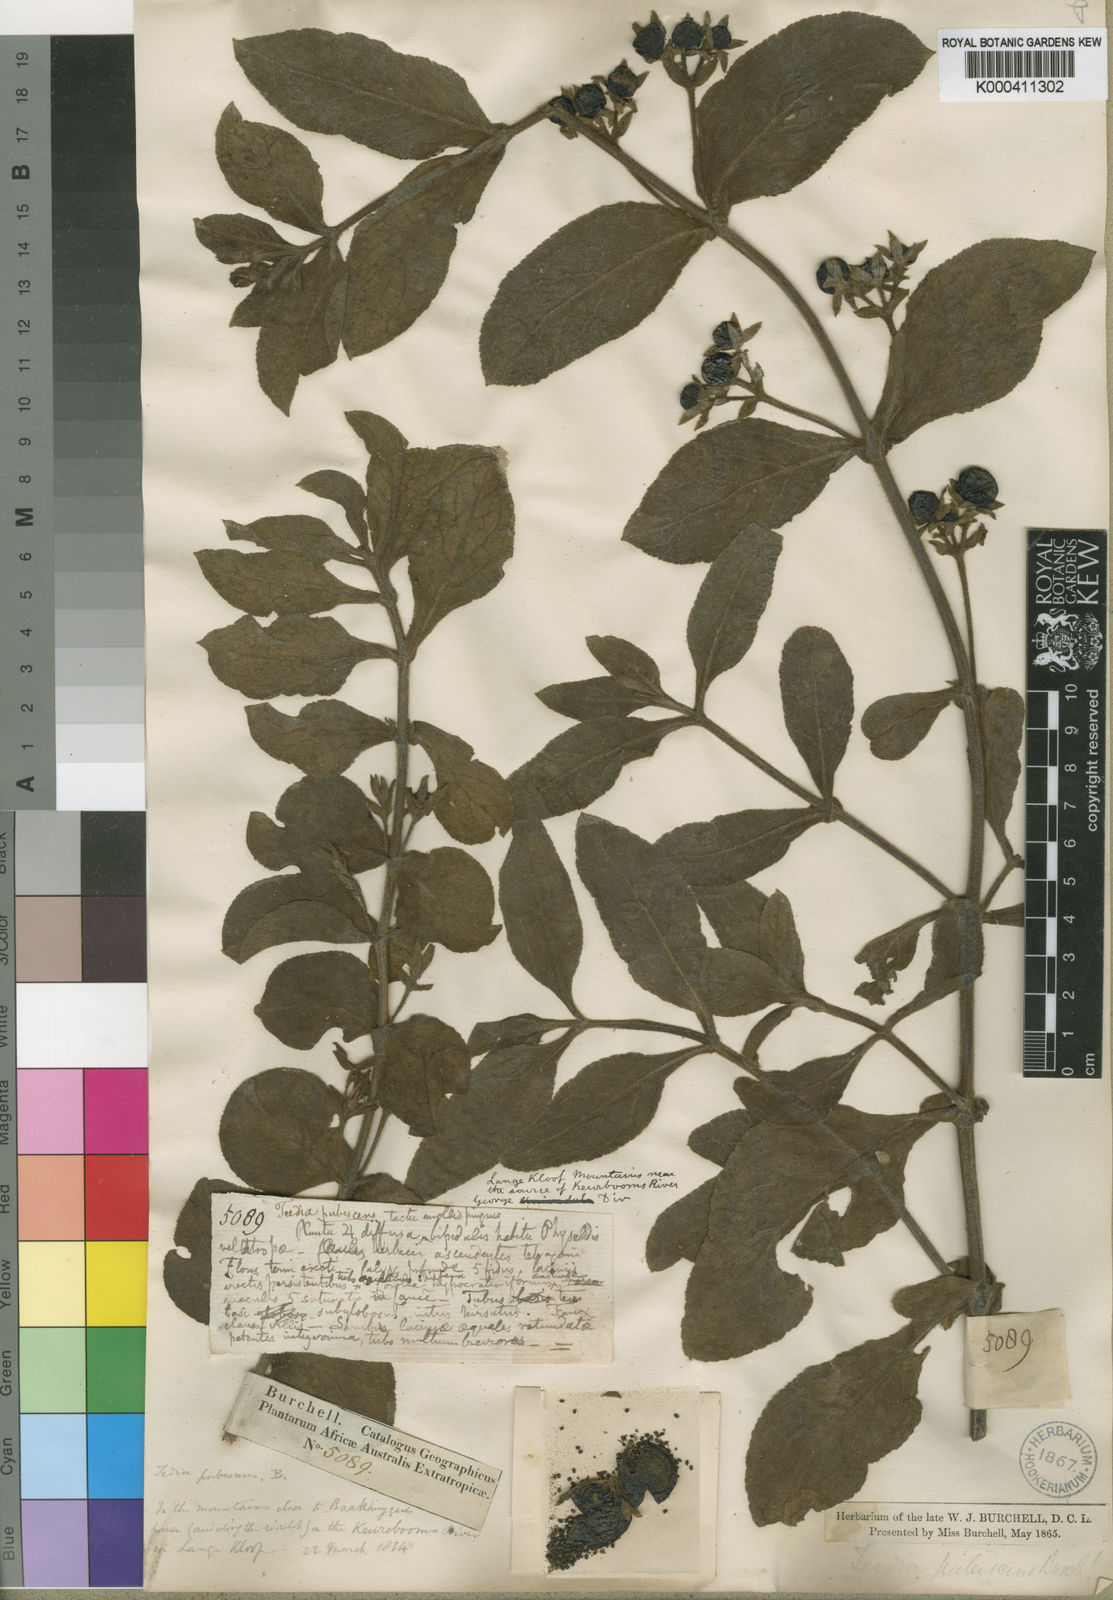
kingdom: Plantae
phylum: Tracheophyta
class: Magnoliopsida
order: Lamiales
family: Scrophulariaceae
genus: Teedia
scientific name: Teedia pubescens
